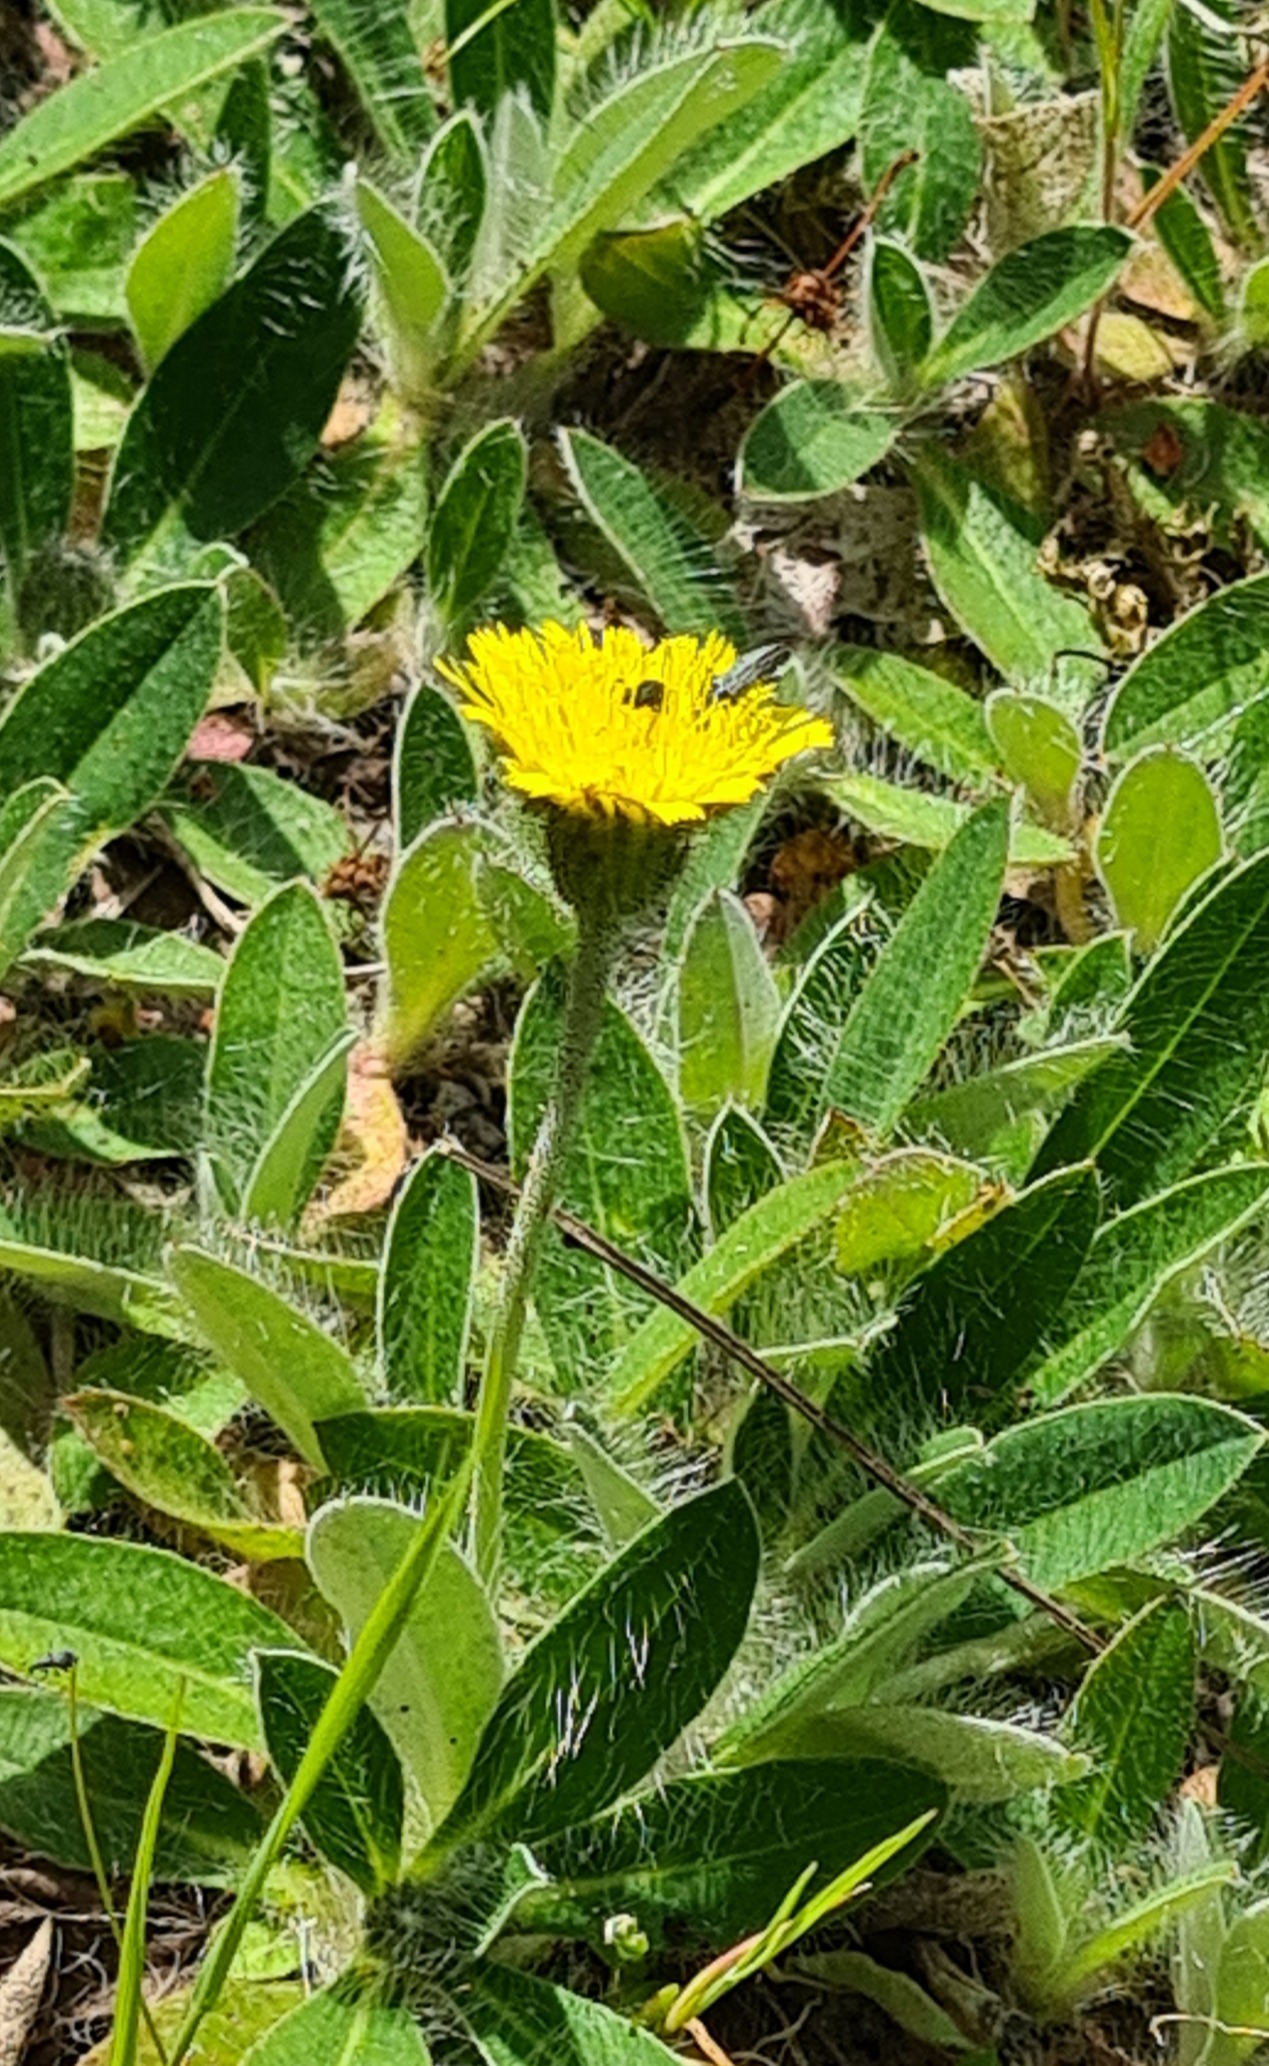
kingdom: Plantae
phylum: Tracheophyta
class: Magnoliopsida
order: Asterales
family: Asteraceae
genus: Pilosella
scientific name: Pilosella officinarum
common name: Håret høgeurt
